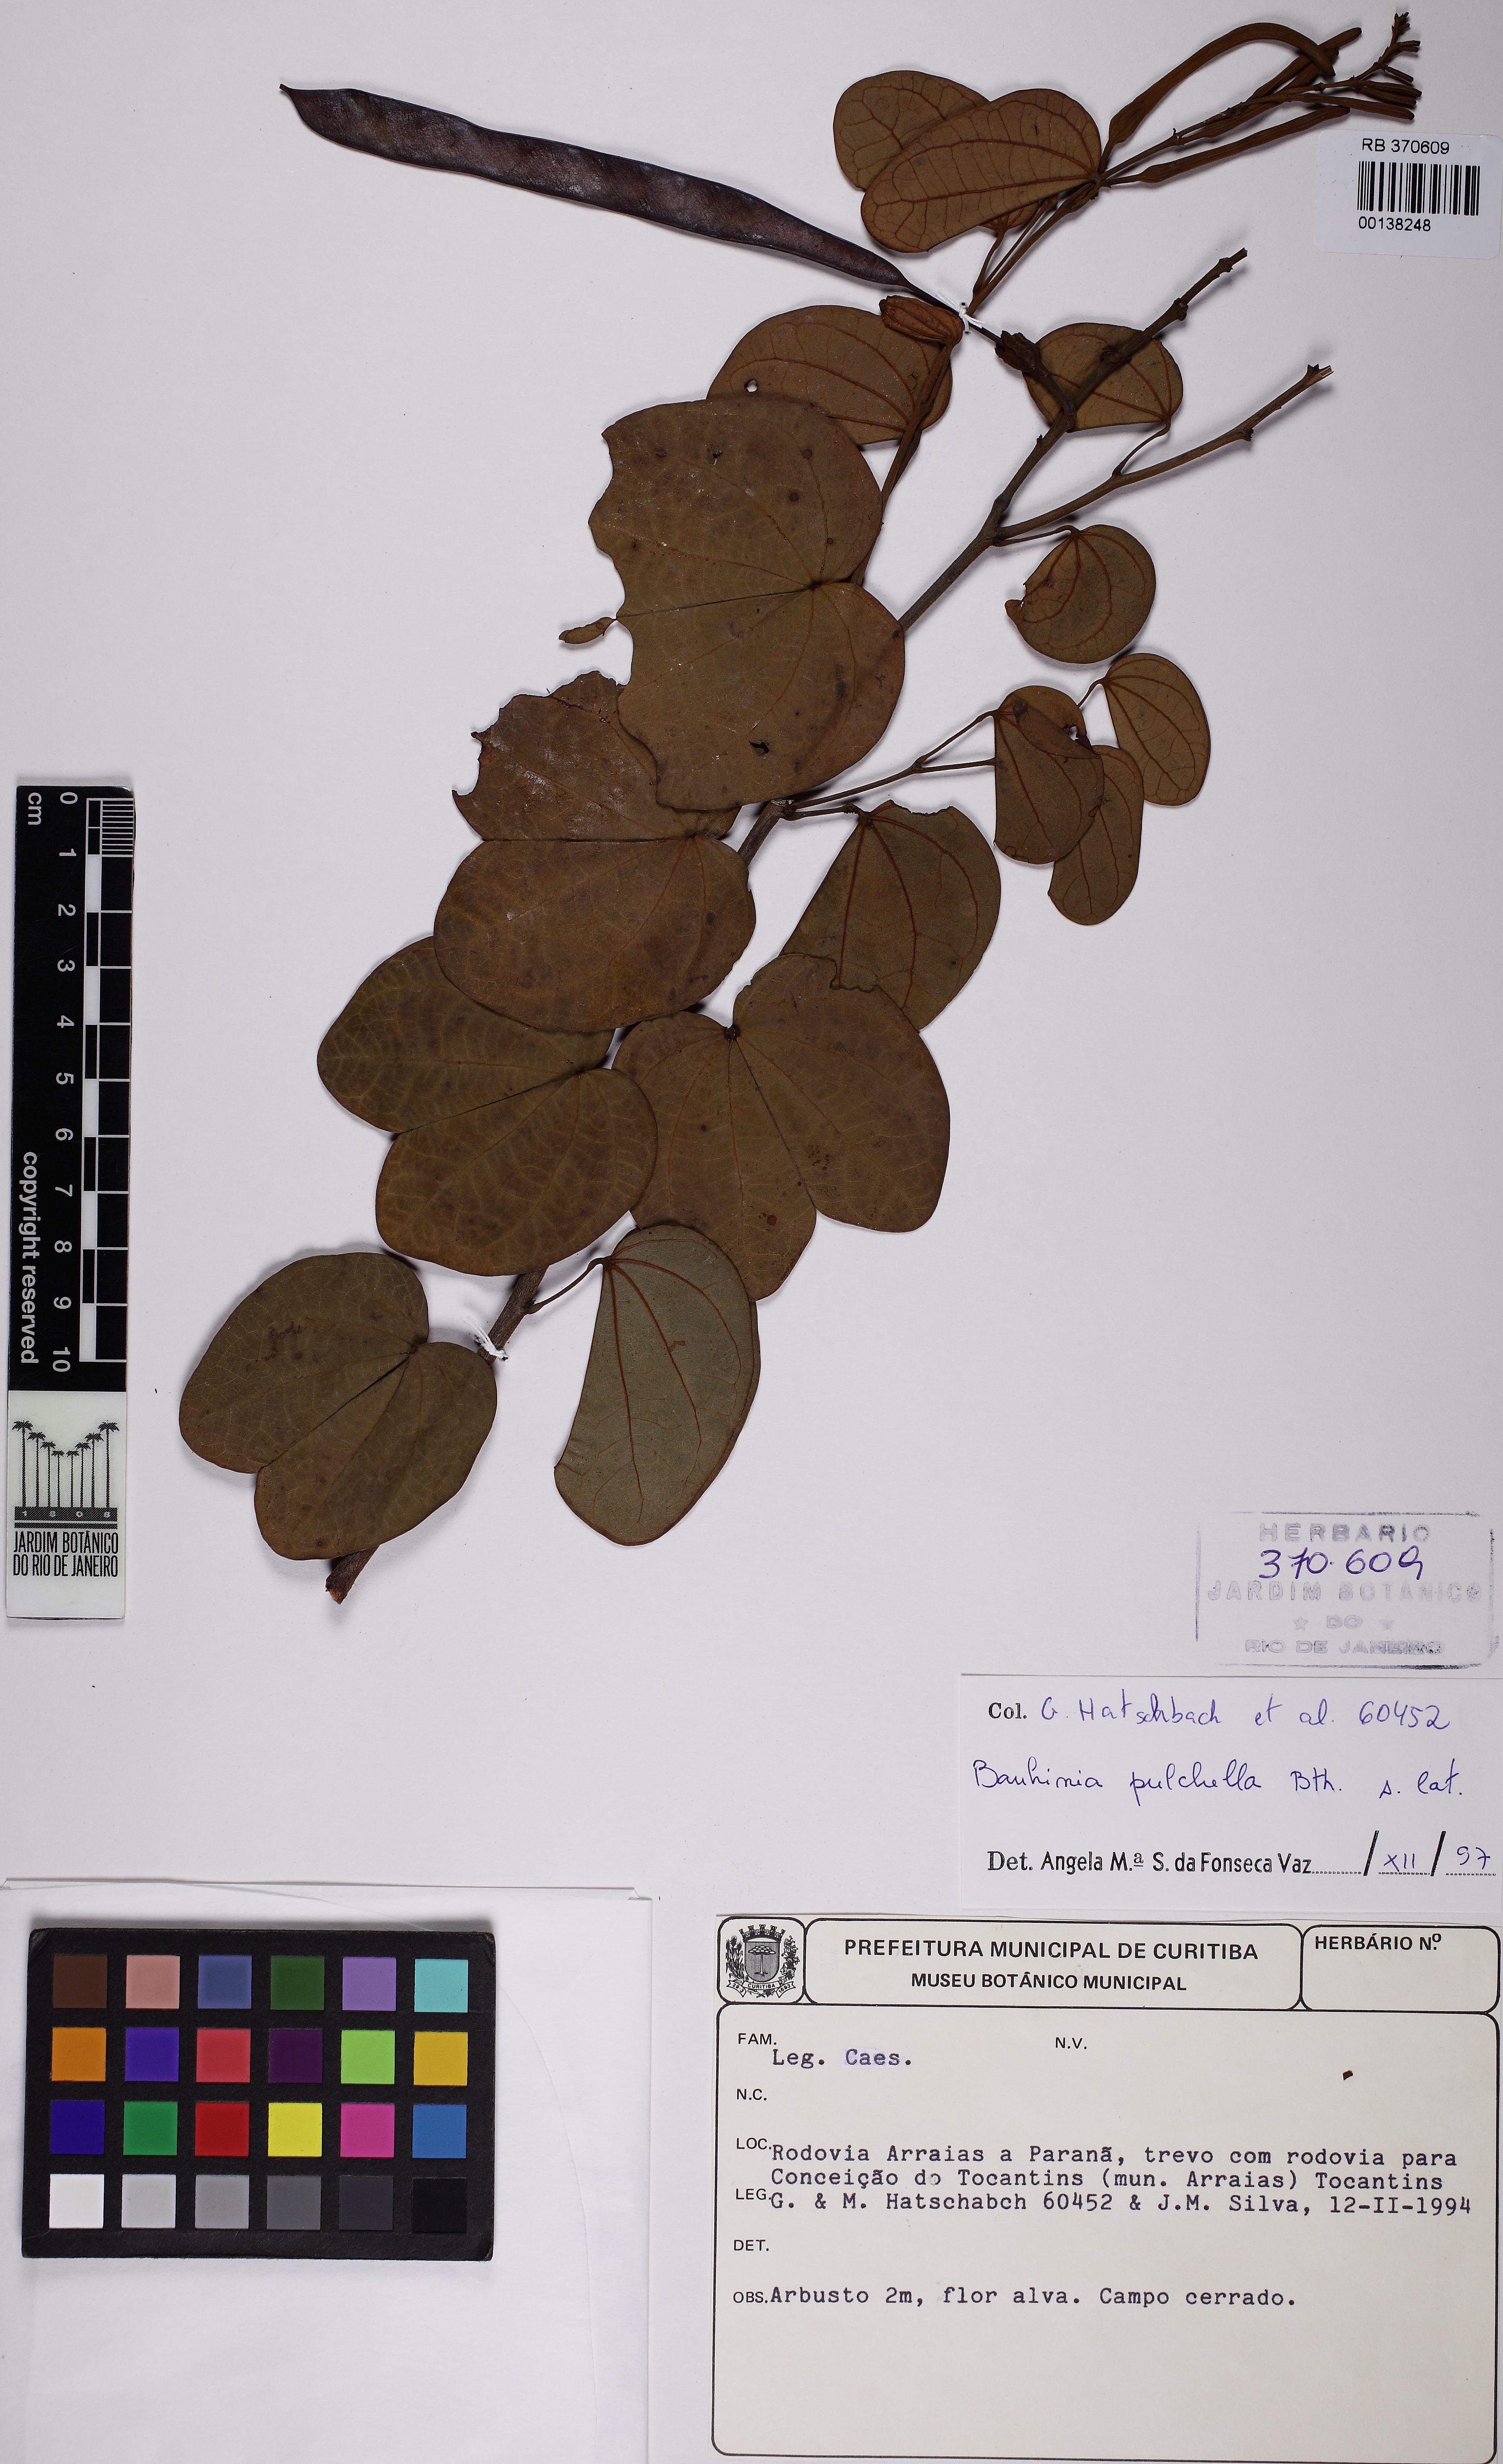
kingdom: Plantae
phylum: Tracheophyta
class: Magnoliopsida
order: Fabales
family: Fabaceae
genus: Bauhinia
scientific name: Bauhinia pulchella
